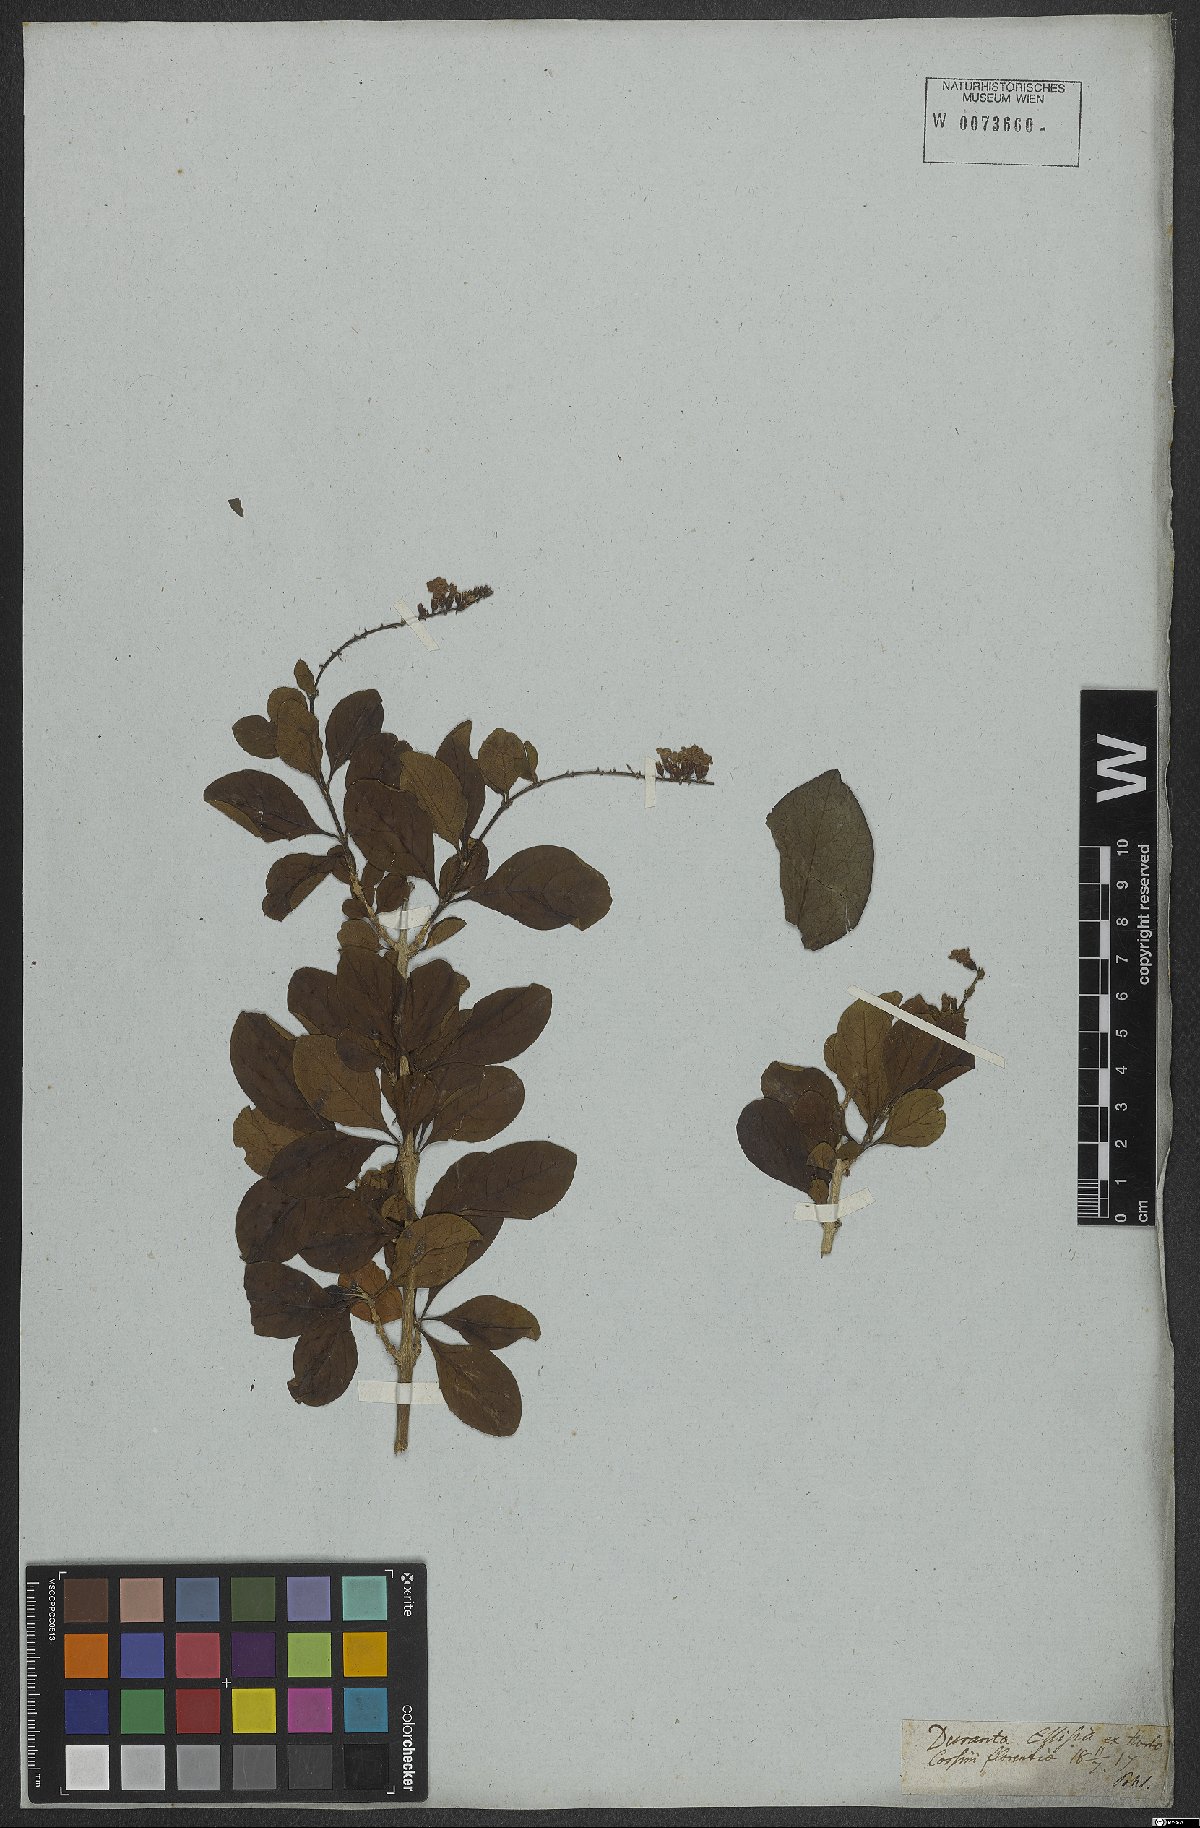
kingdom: Plantae
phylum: Tracheophyta
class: Magnoliopsida
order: Lamiales
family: Verbenaceae
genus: Duranta
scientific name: Duranta erecta
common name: Golden dewdrops
